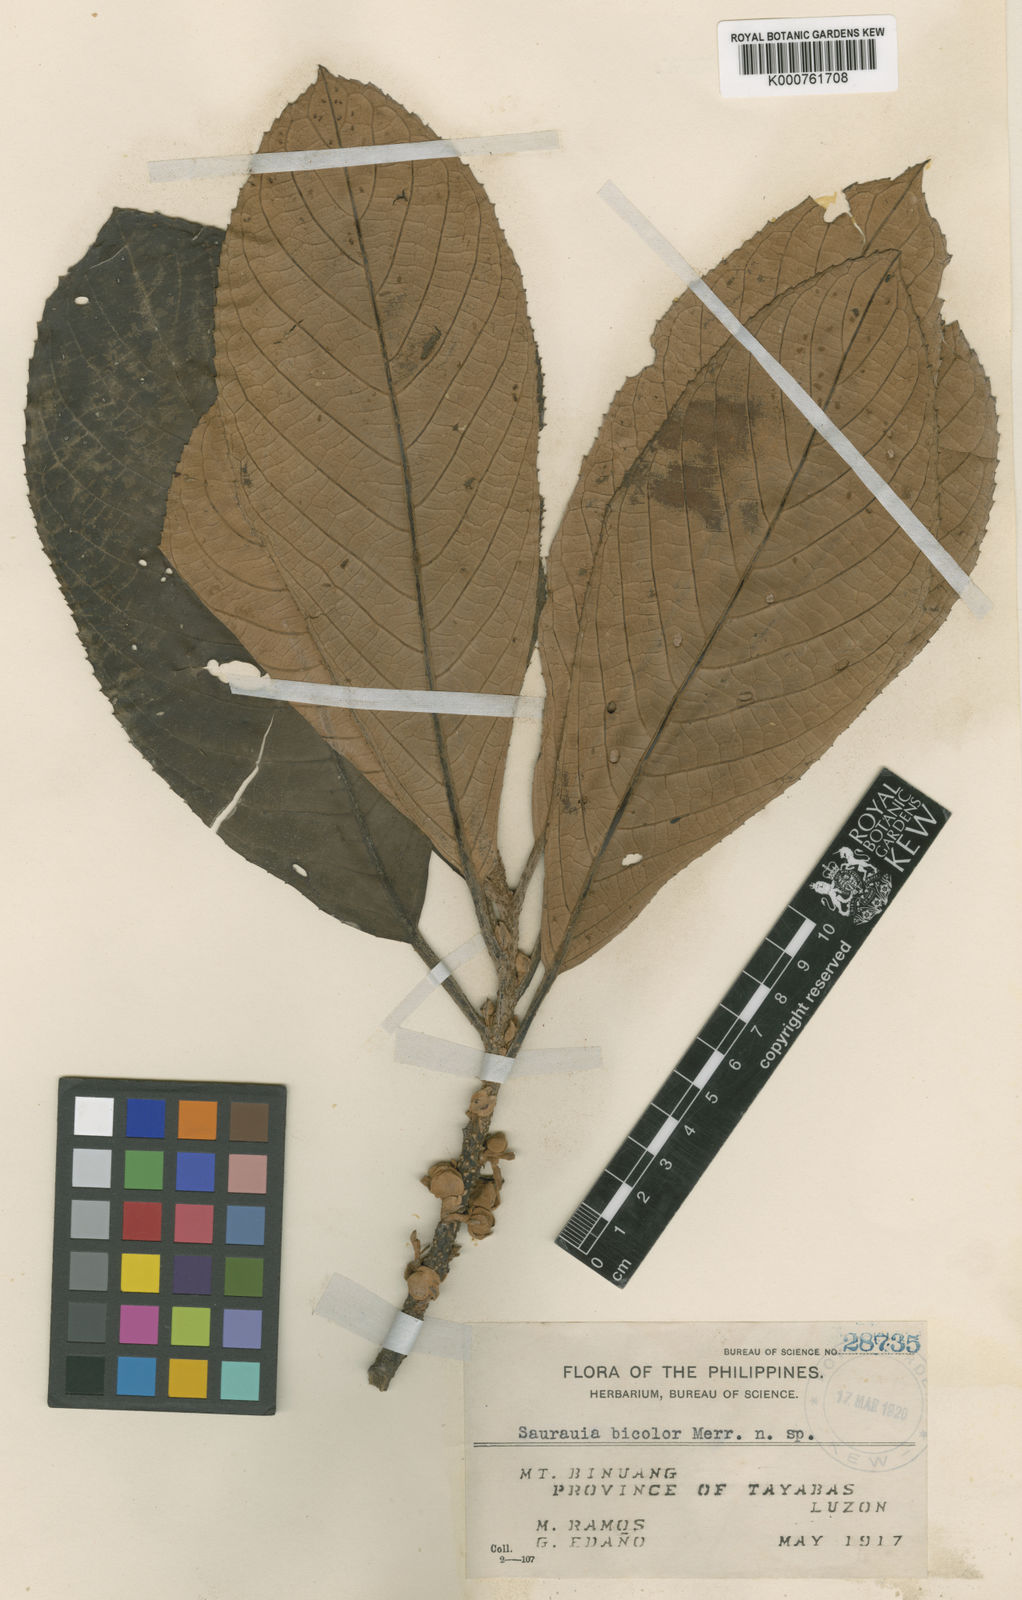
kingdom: Plantae
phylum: Tracheophyta
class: Magnoliopsida
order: Ericales
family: Actinidiaceae
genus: Saurauia
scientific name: Saurauia bicolor
